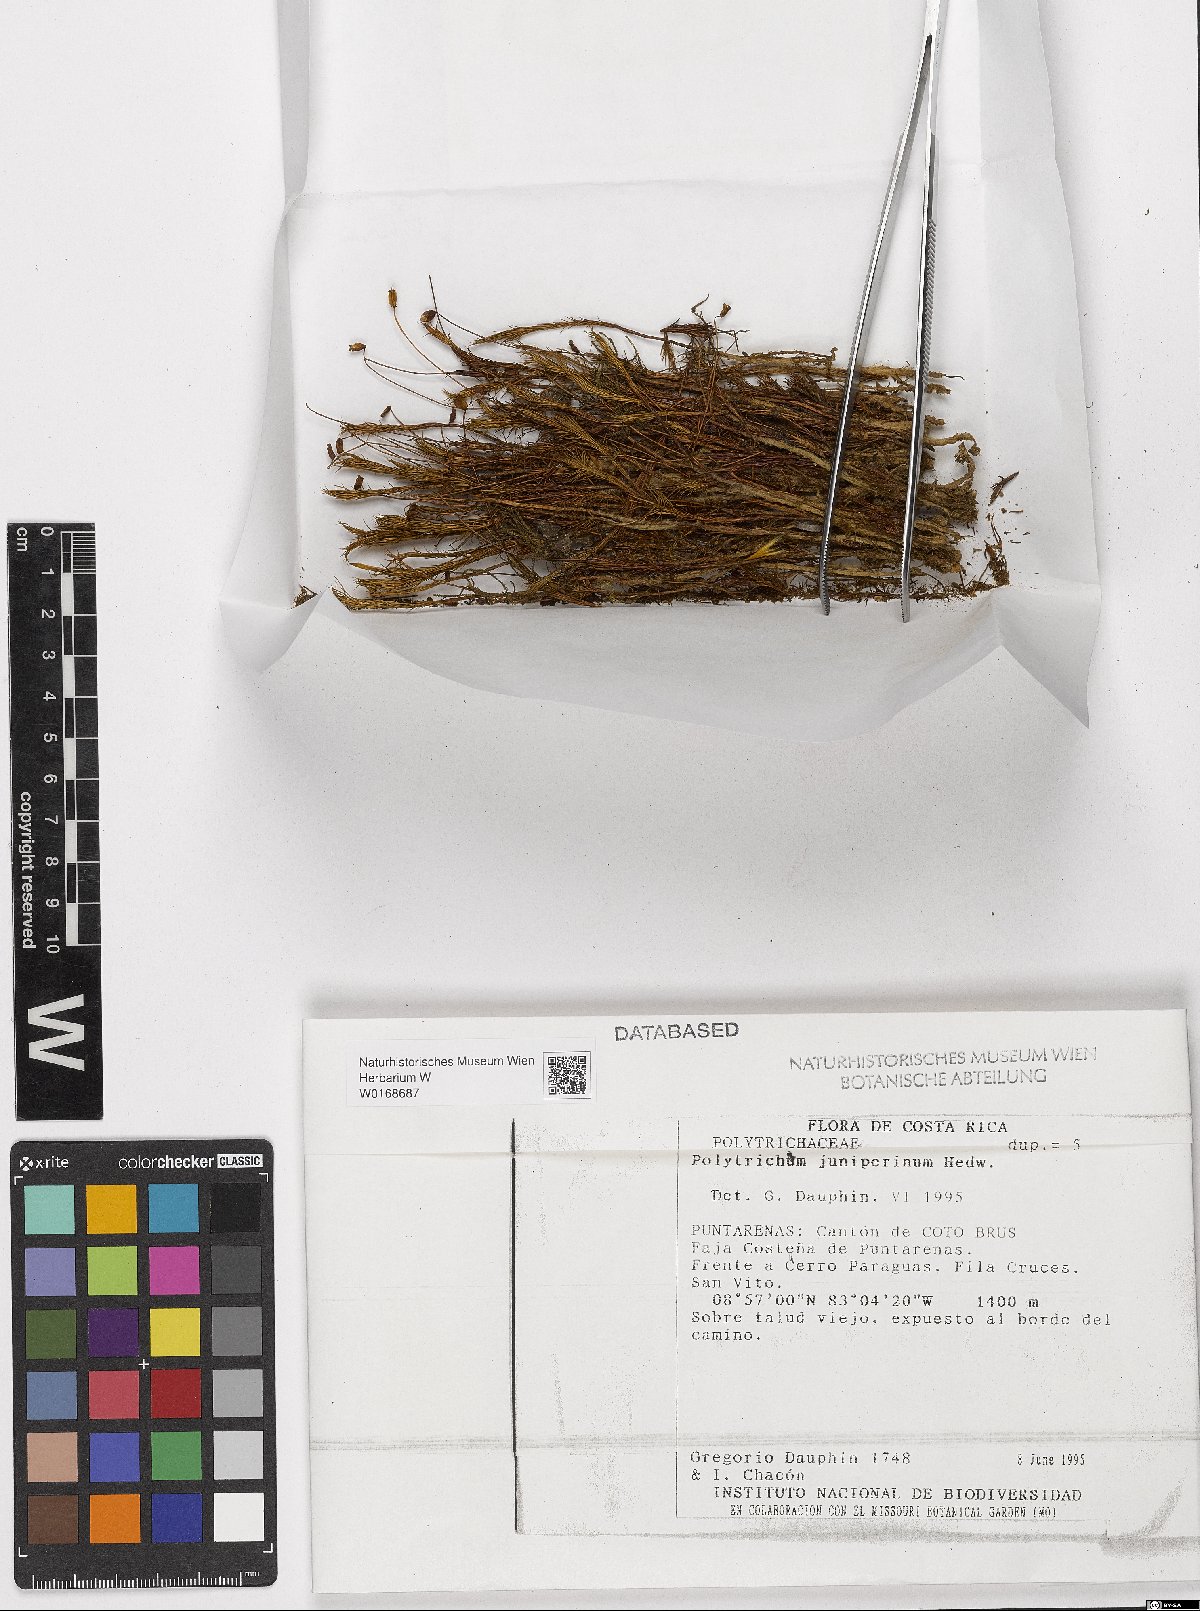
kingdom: Plantae
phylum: Bryophyta
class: Polytrichopsida
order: Polytrichales
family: Polytrichaceae
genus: Polytrichum
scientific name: Polytrichum juniperinum
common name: Juniper haircap moss
